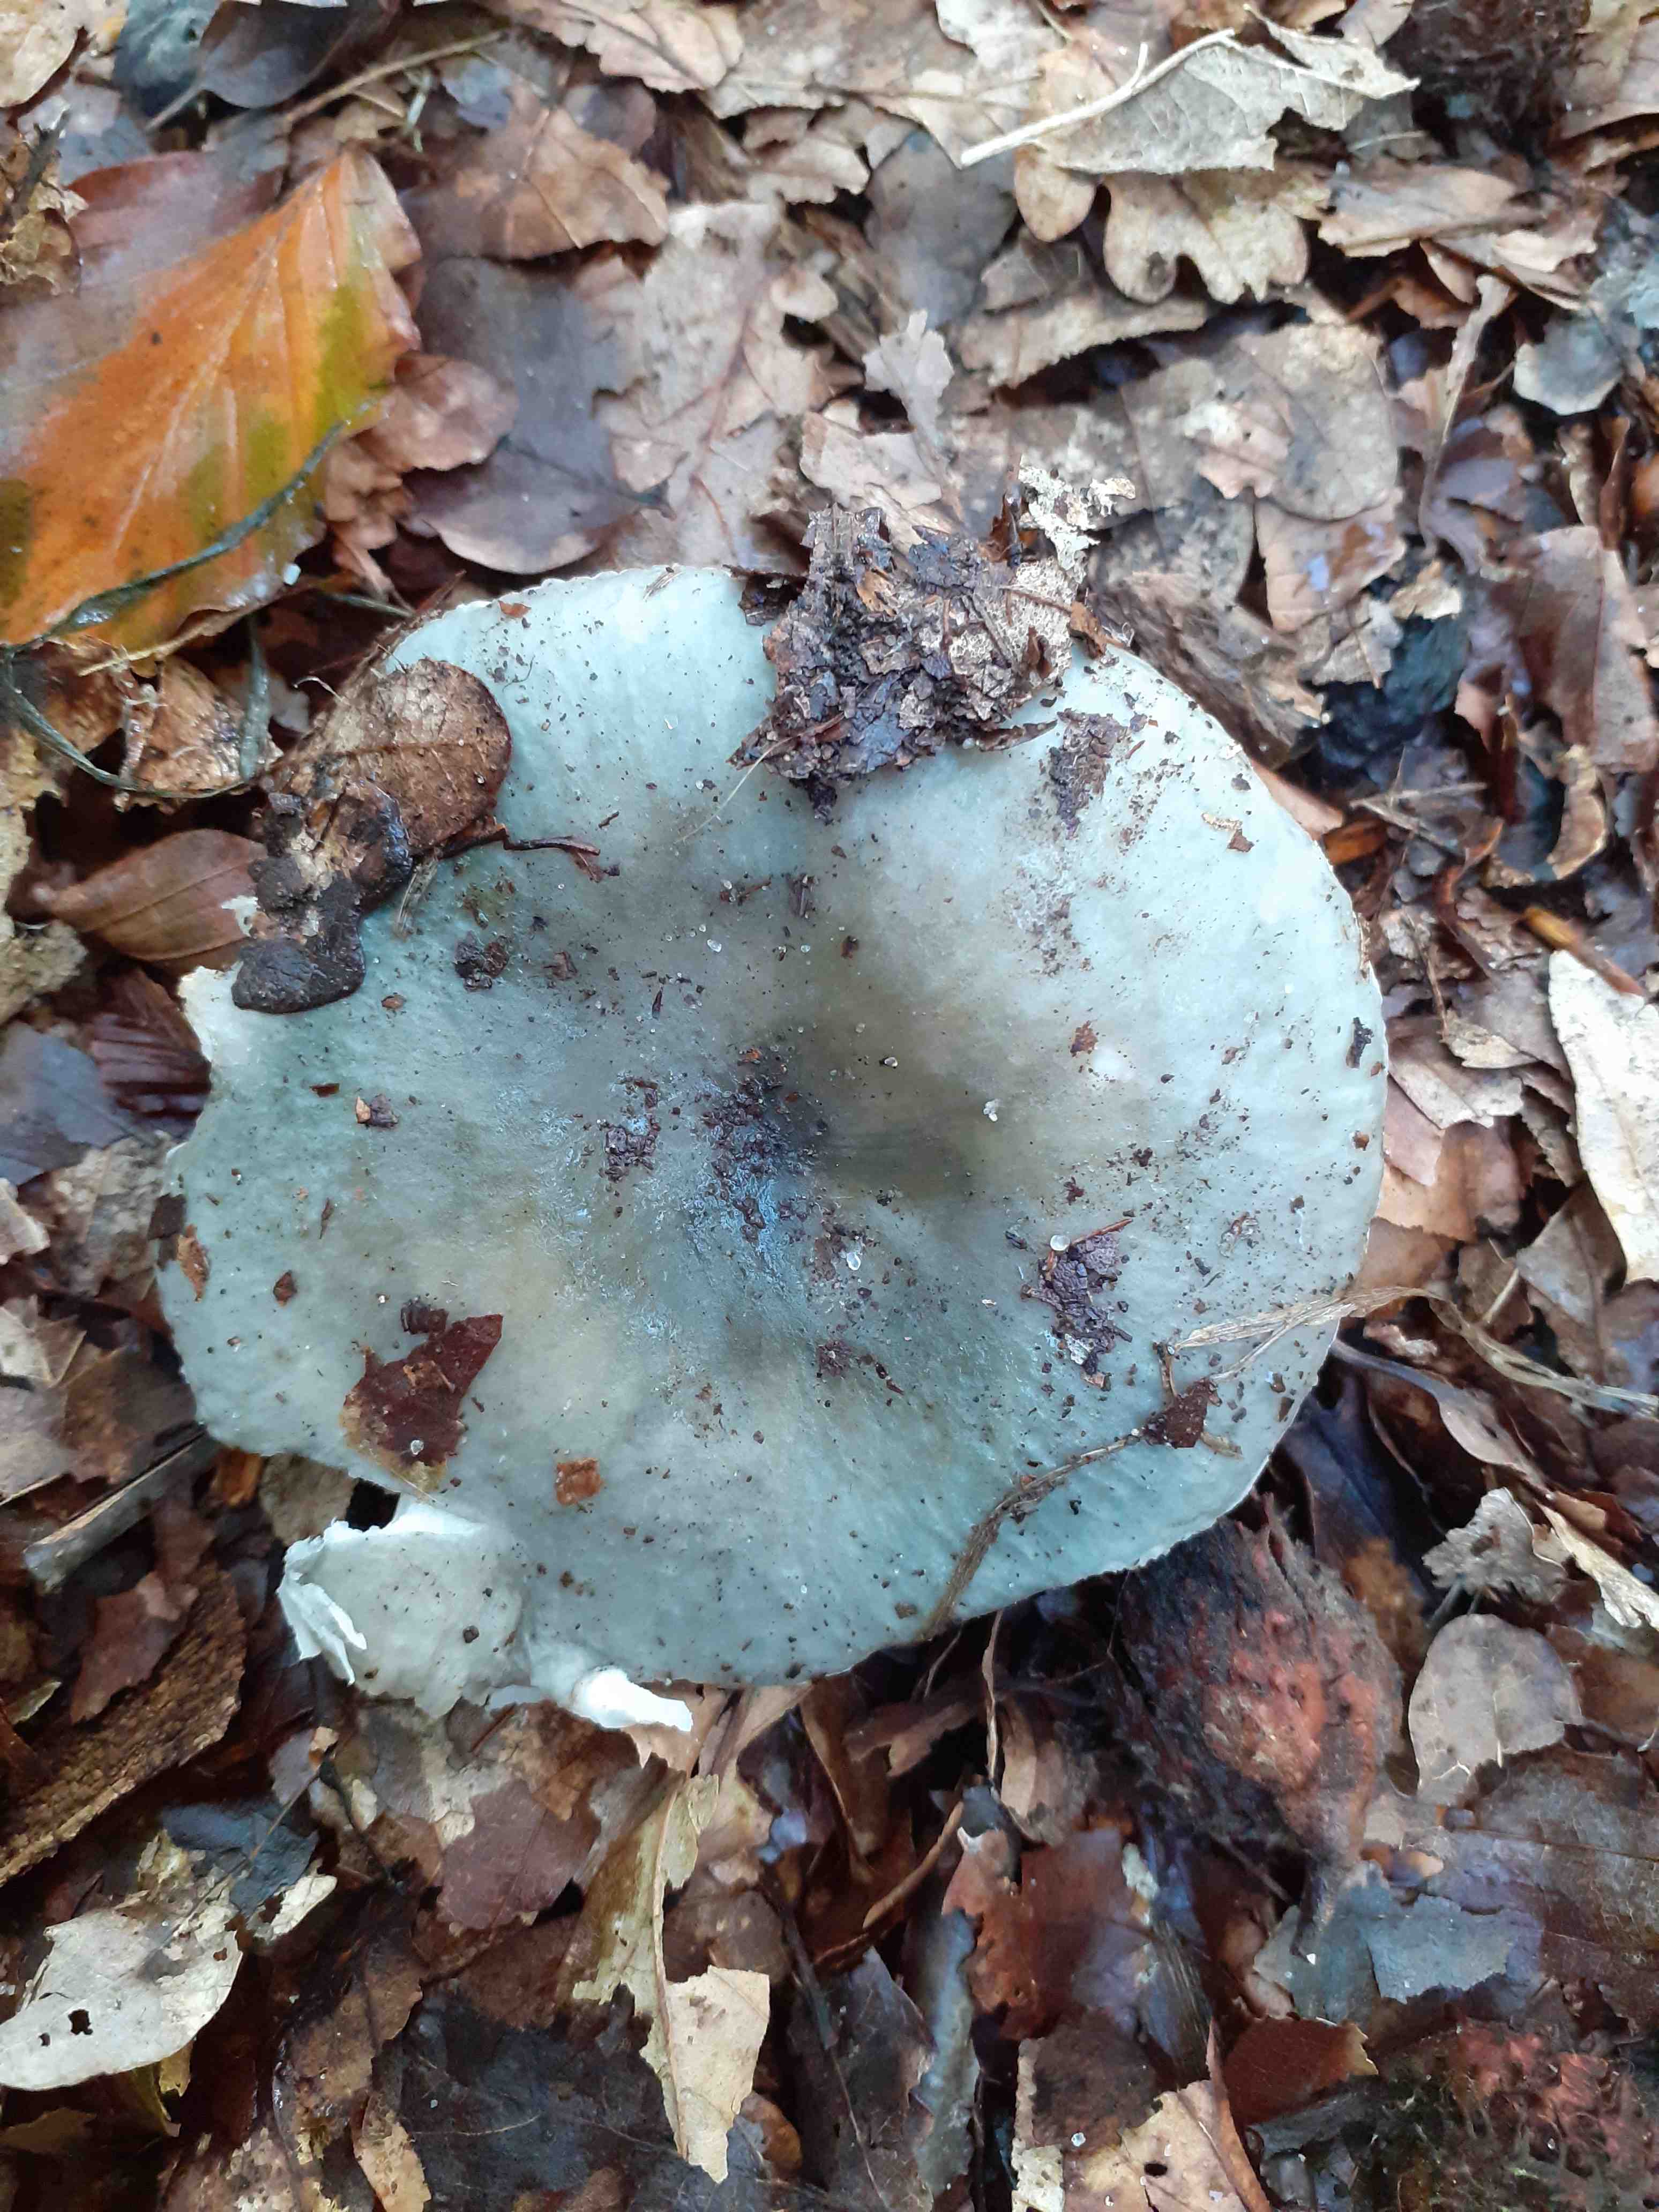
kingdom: Fungi
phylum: Basidiomycota
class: Agaricomycetes
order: Russulales
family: Russulaceae
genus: Russula
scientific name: Russula parazurea
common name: blågrå skørhat
